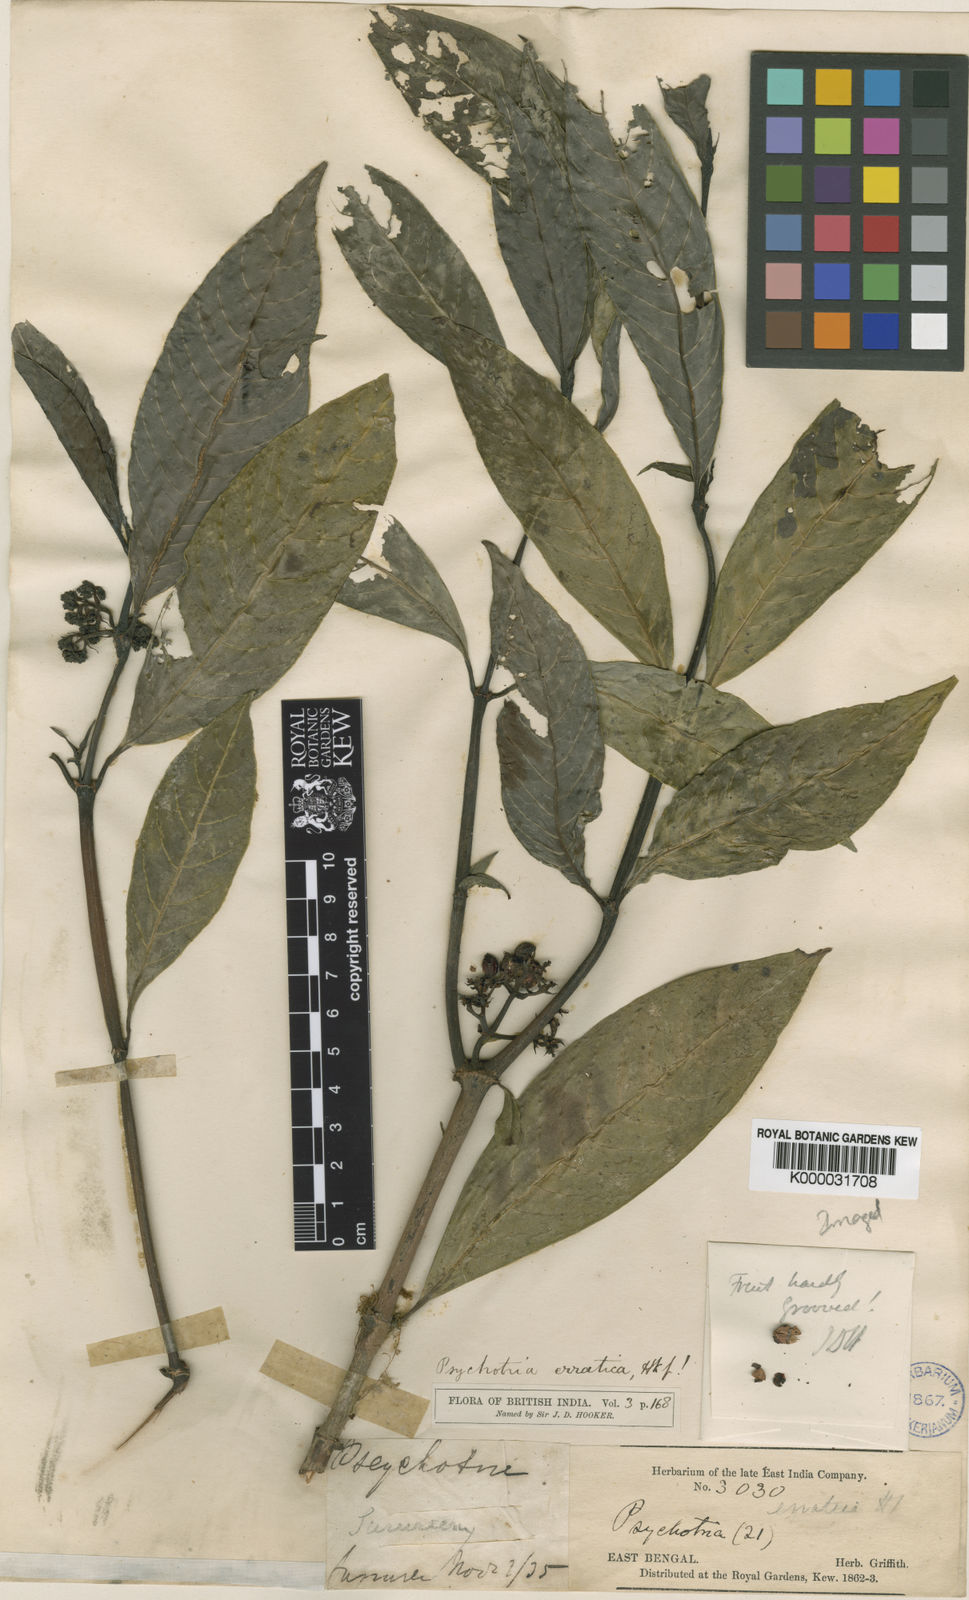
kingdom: Plantae
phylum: Tracheophyta
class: Magnoliopsida
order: Gentianales
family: Rubiaceae
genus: Psychotria
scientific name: Psychotria erratica
